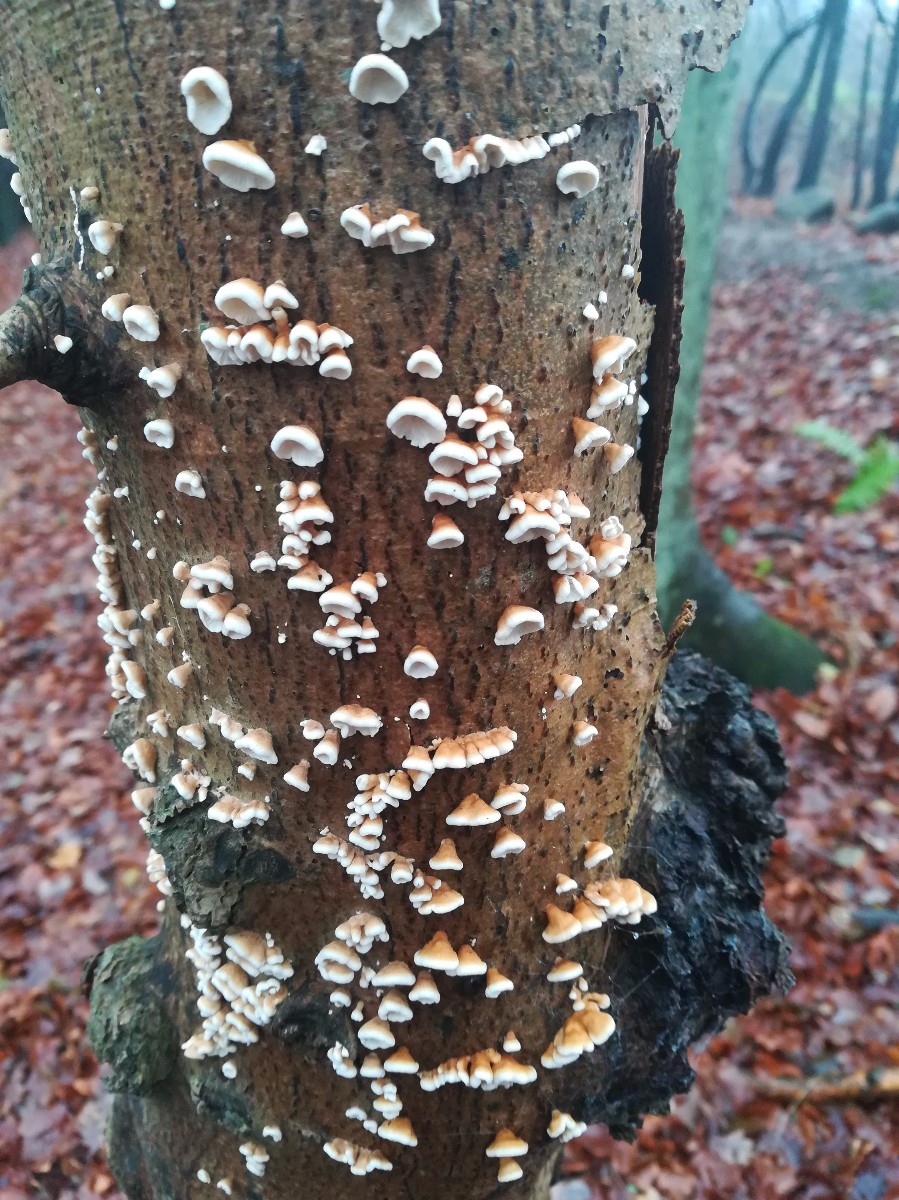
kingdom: Fungi
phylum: Basidiomycota
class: Agaricomycetes
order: Amylocorticiales
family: Amylocorticiaceae
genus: Plicaturopsis
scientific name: Plicaturopsis crispa
